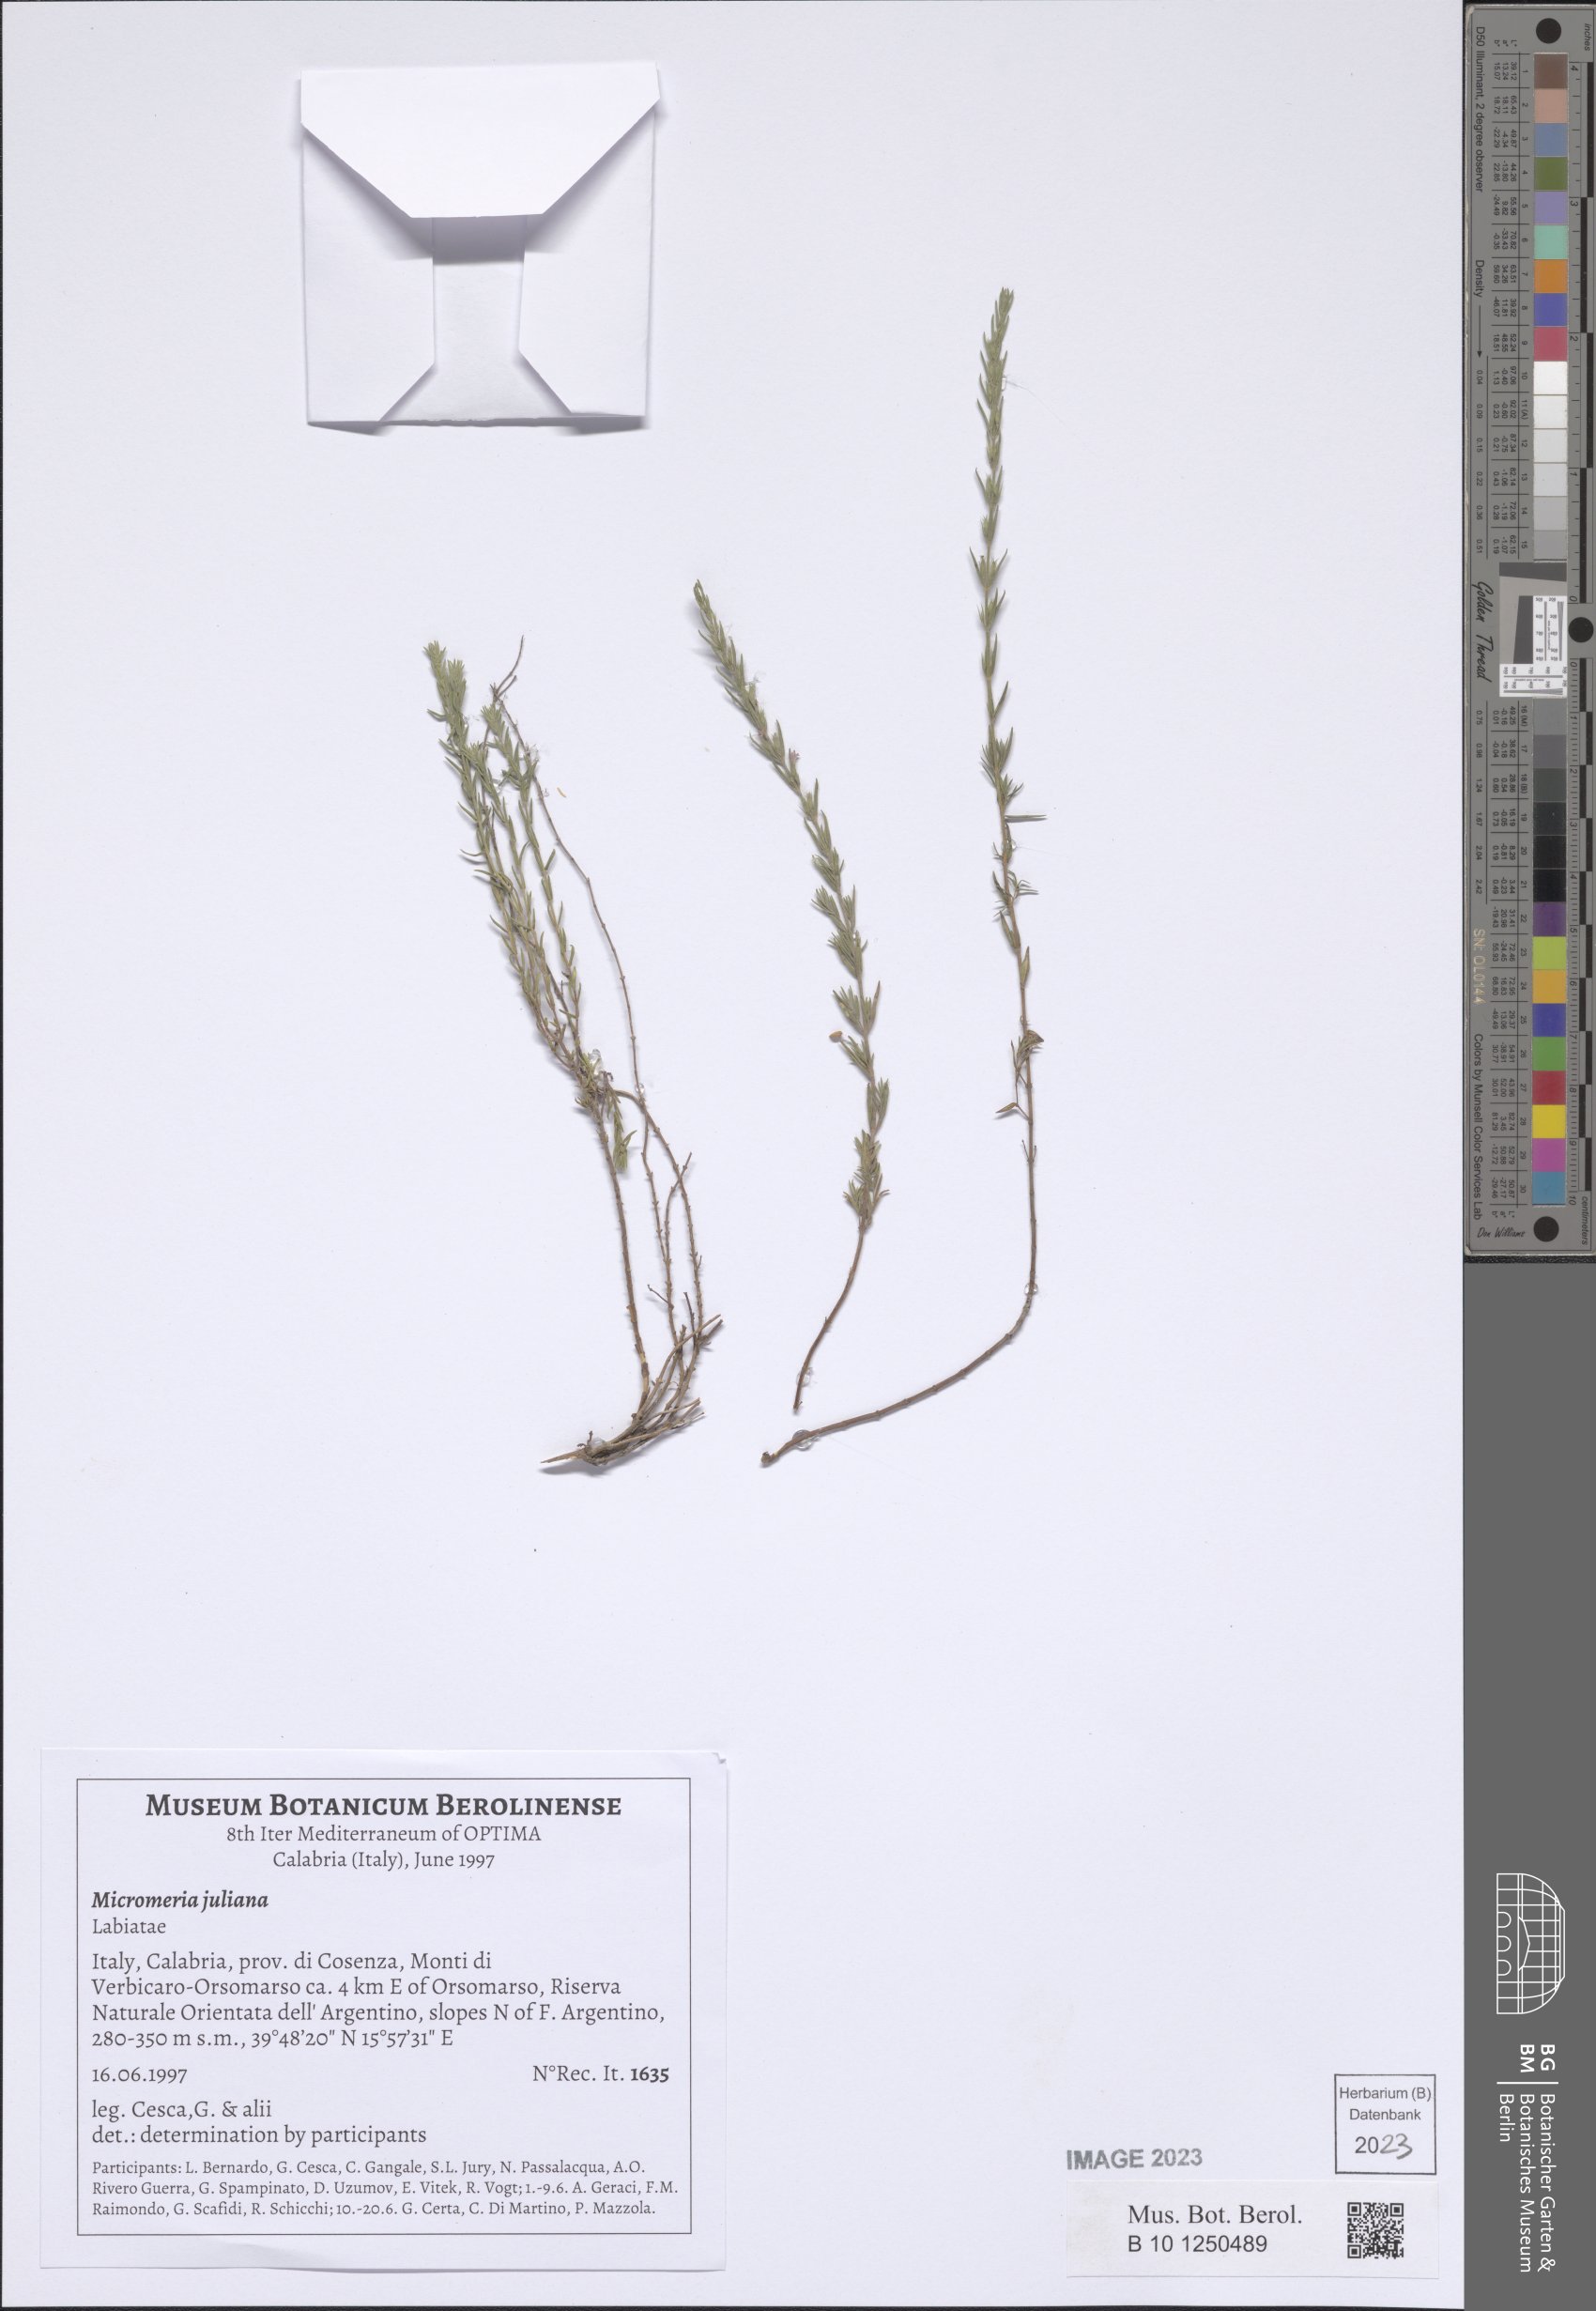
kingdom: Plantae
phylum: Tracheophyta
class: Magnoliopsida
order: Lamiales
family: Lamiaceae
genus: Micromeria
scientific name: Micromeria juliana
